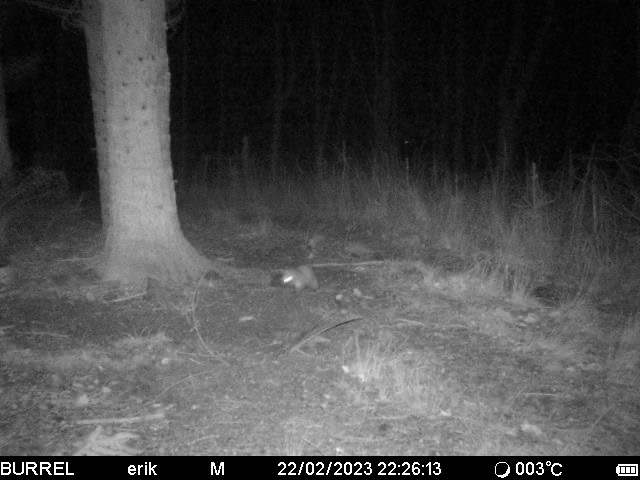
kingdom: Animalia
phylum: Chordata
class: Mammalia
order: Carnivora
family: Mustelidae
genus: Martes
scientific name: Martes foina
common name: Husmår
